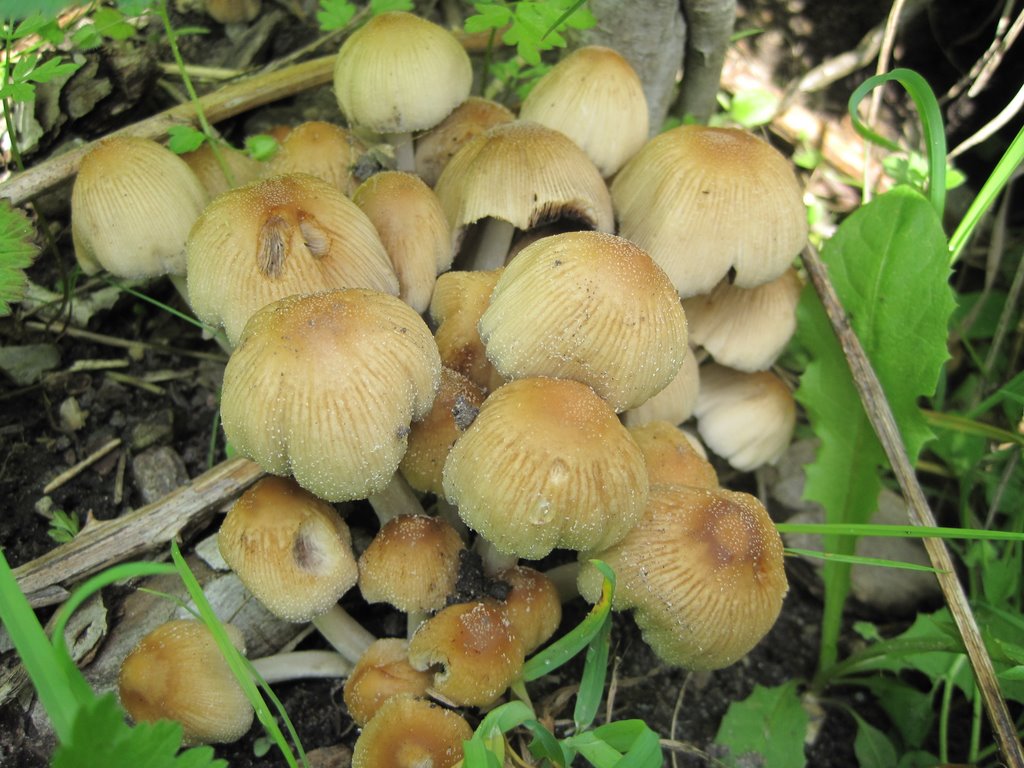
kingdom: Fungi
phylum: Basidiomycota
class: Agaricomycetes
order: Agaricales
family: Psathyrellaceae
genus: Coprinellus
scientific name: Coprinellus micaceus
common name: glimmer-blækhat
